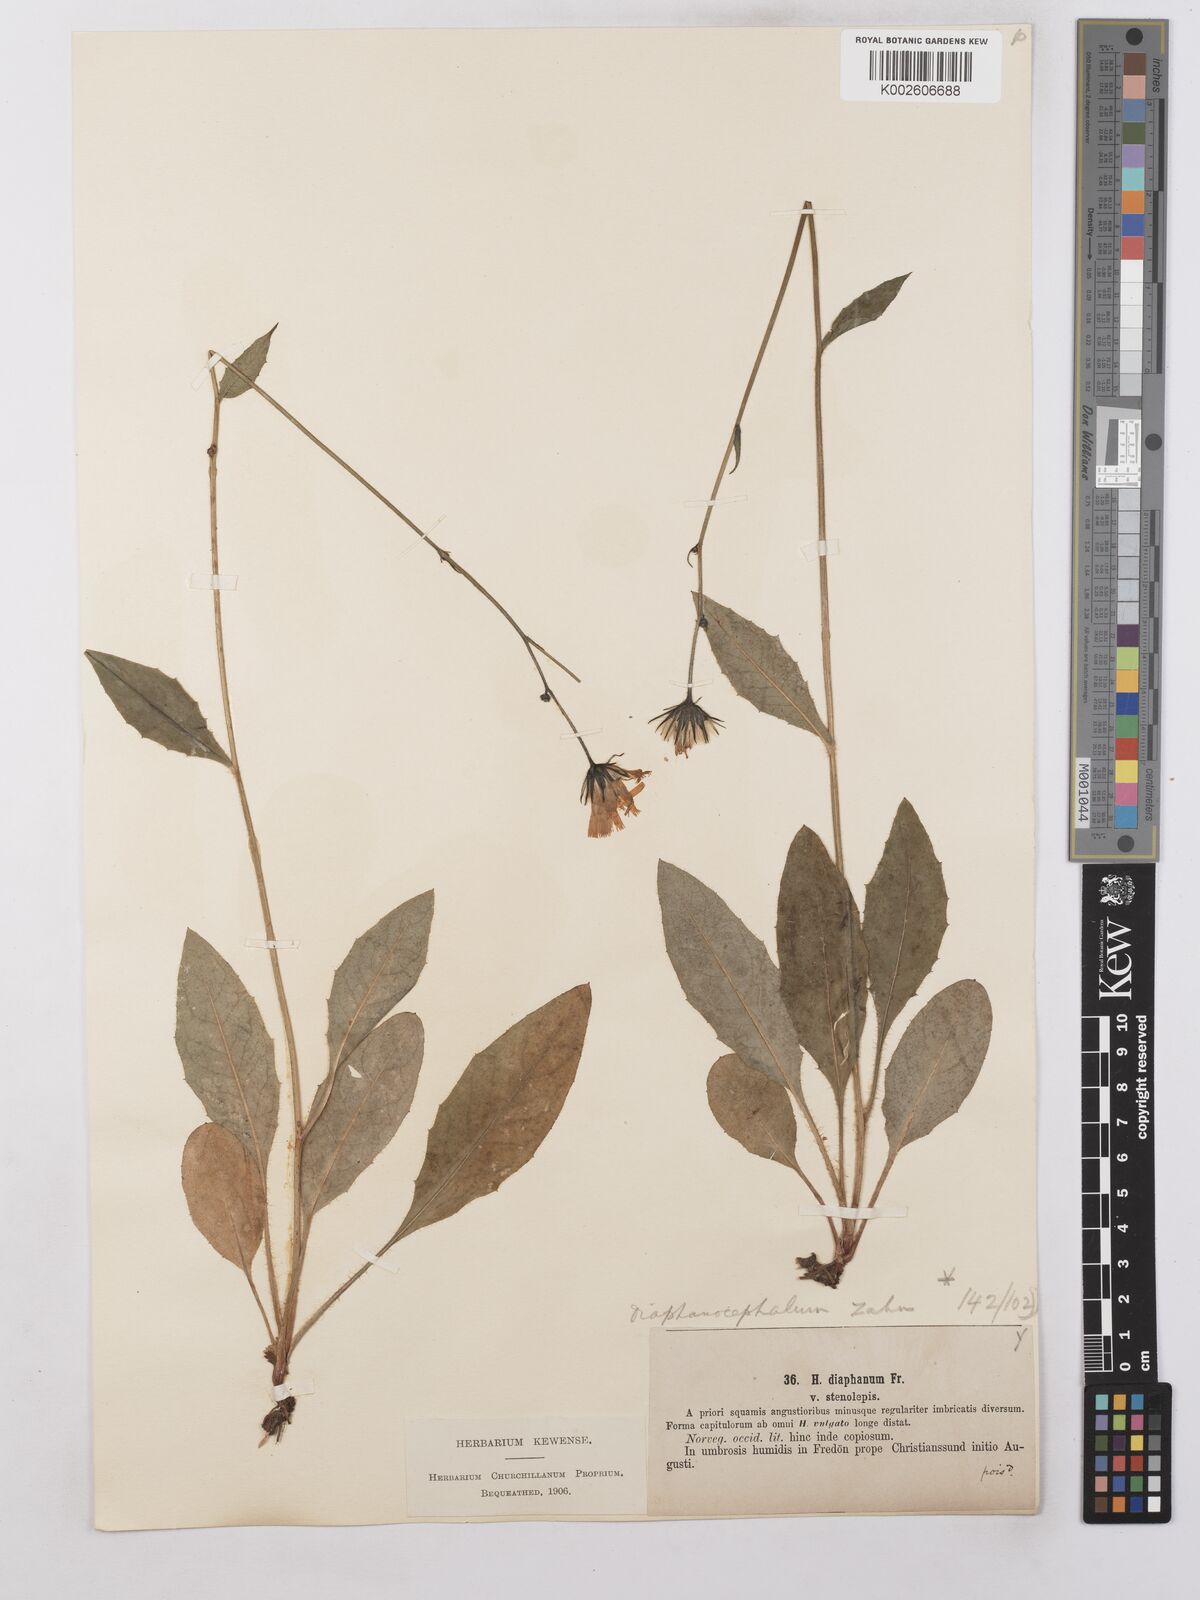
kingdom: Plantae
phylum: Tracheophyta
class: Magnoliopsida
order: Asterales
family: Asteraceae
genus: Hieracium
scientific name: Hieracium lachenalii
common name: Common hawkweed
